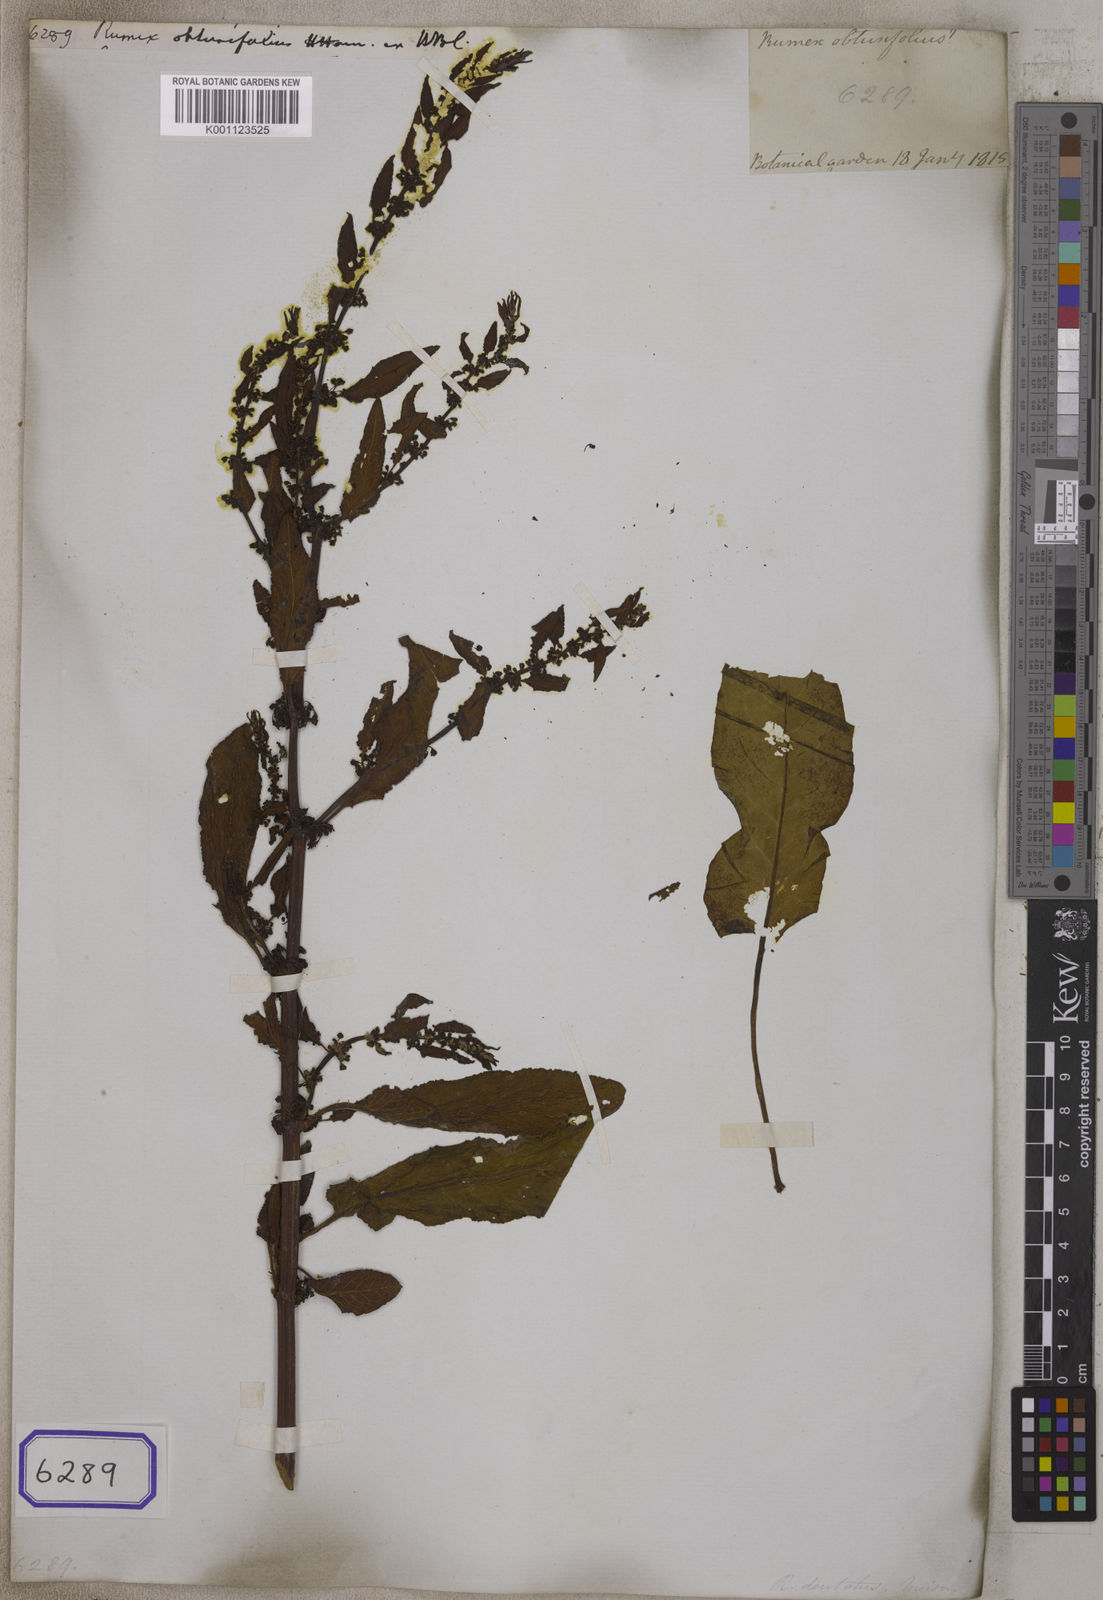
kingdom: Plantae
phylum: Tracheophyta
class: Magnoliopsida
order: Caryophyllales
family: Polygonaceae
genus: Rumex
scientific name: Rumex obtusifolius
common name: Bitter dock
